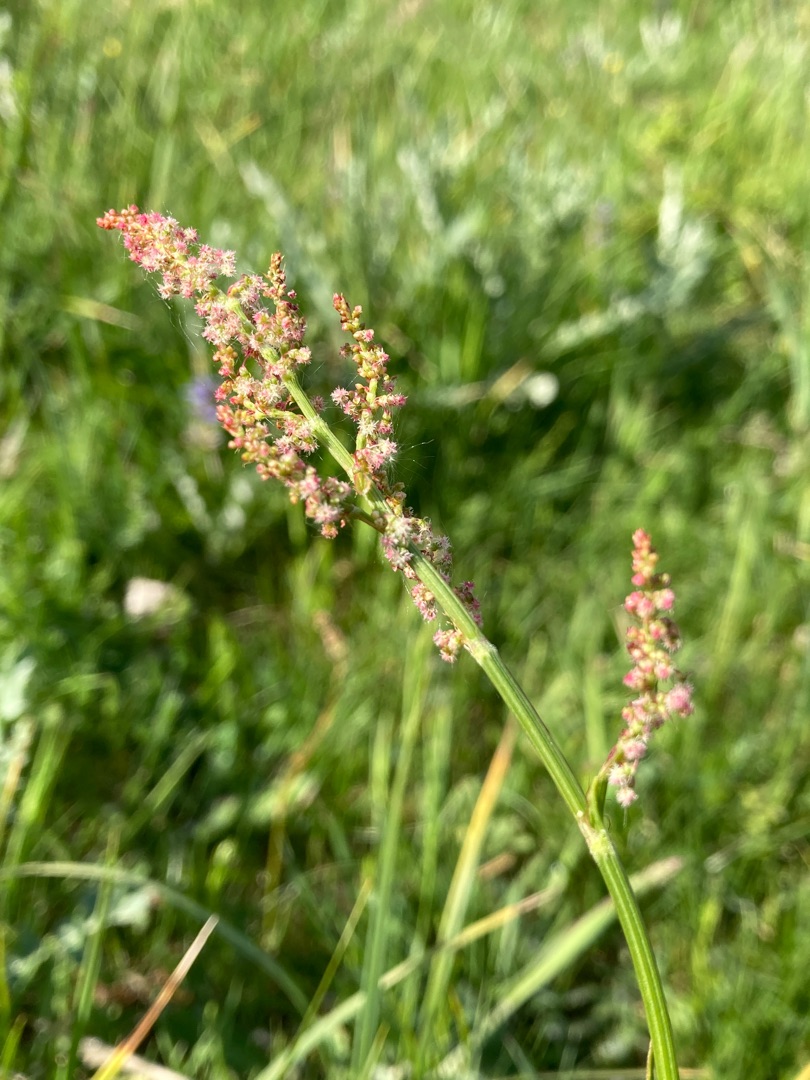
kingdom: Plantae
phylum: Tracheophyta
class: Magnoliopsida
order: Caryophyllales
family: Polygonaceae
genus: Rumex
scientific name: Rumex acetosa
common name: Almindelig syre
